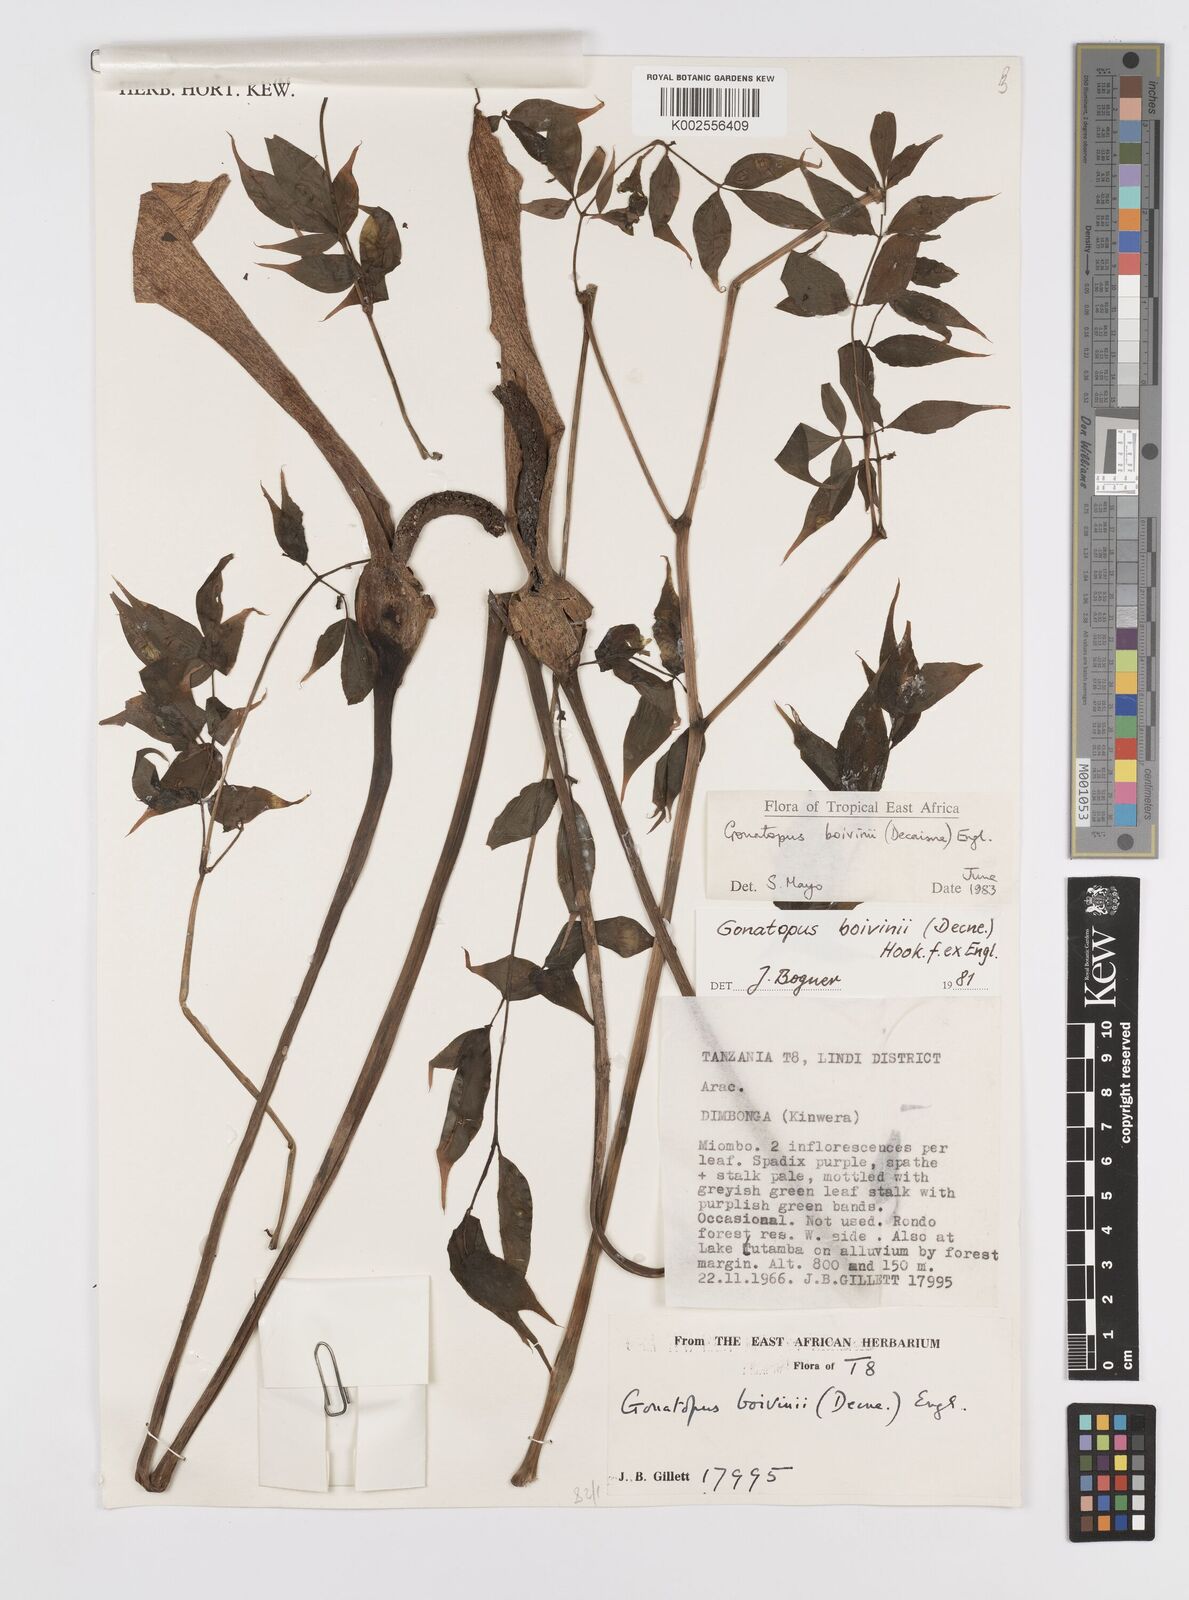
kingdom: Plantae
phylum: Tracheophyta
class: Liliopsida
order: Alismatales
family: Araceae
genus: Gonatopus
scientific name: Gonatopus boivinii
